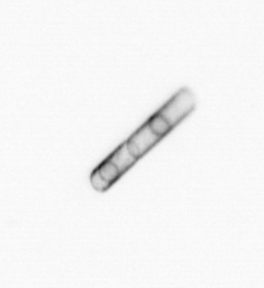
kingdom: Chromista
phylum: Ochrophyta
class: Bacillariophyceae
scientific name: Bacillariophyceae
